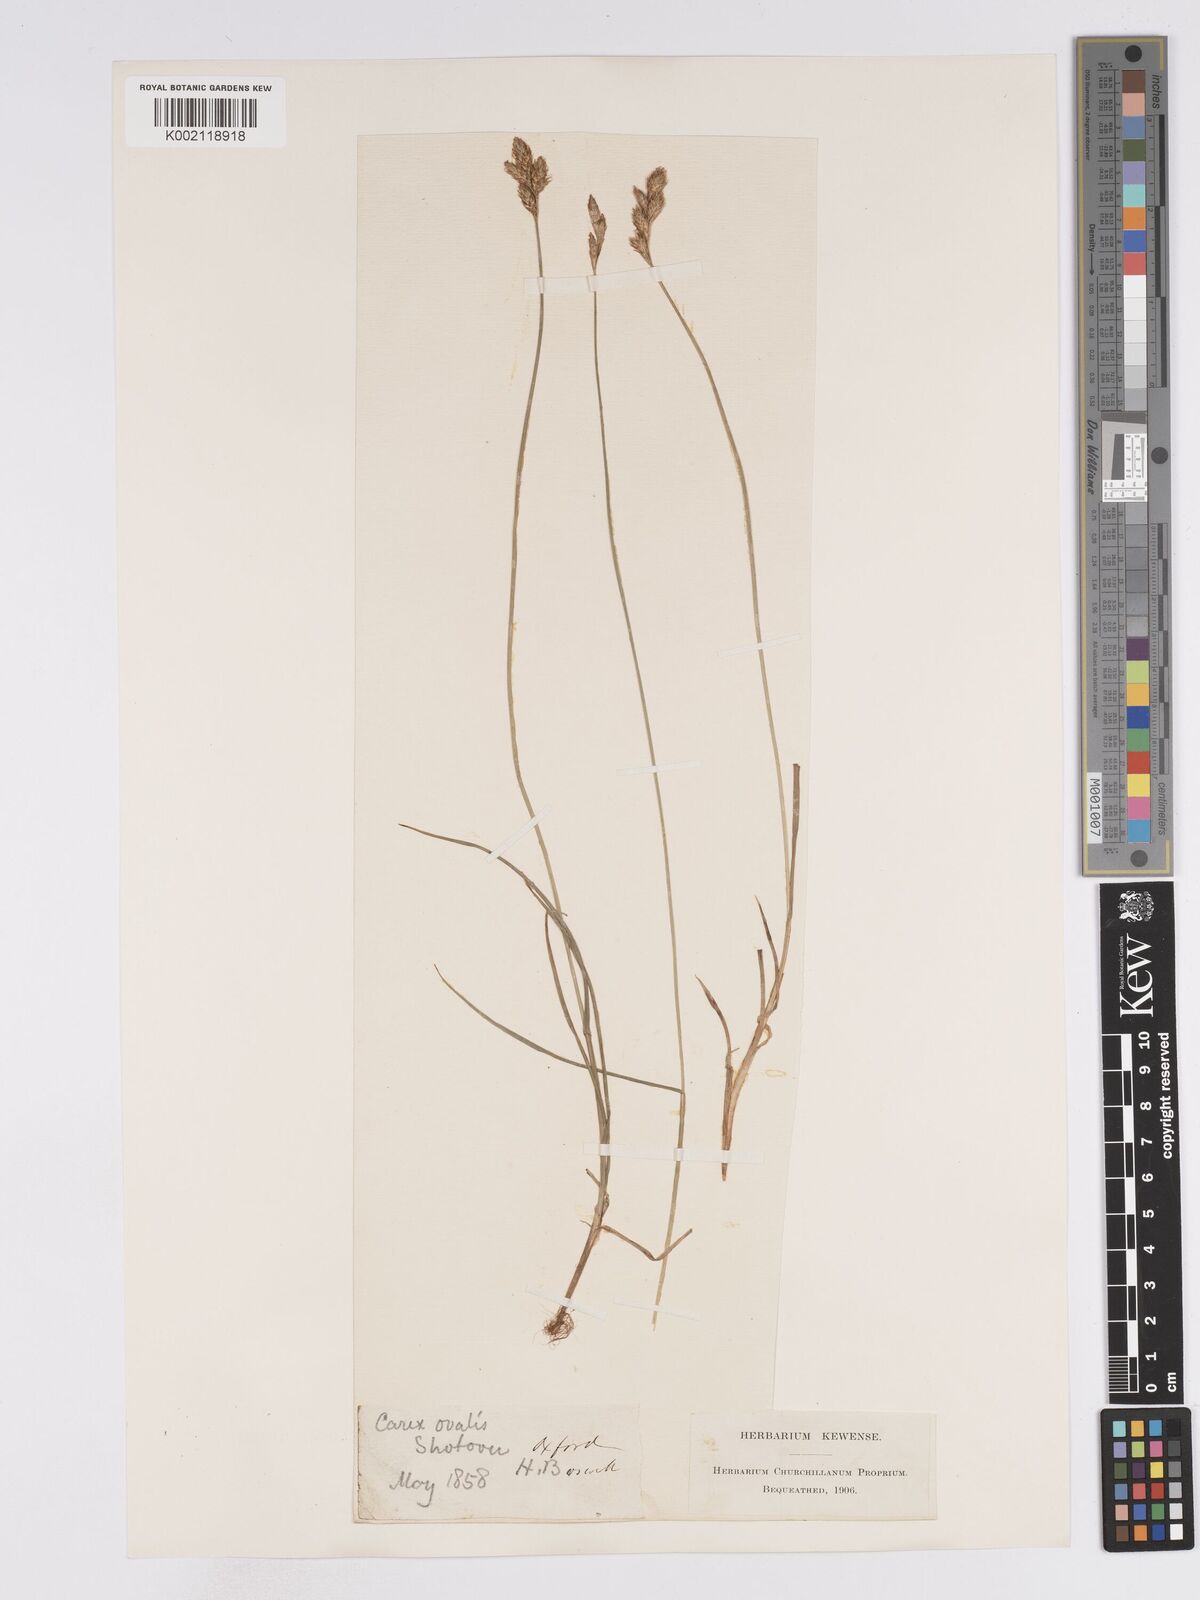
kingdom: Plantae
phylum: Tracheophyta
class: Liliopsida
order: Poales
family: Cyperaceae
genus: Carex
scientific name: Carex leporina
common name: Oval sedge
